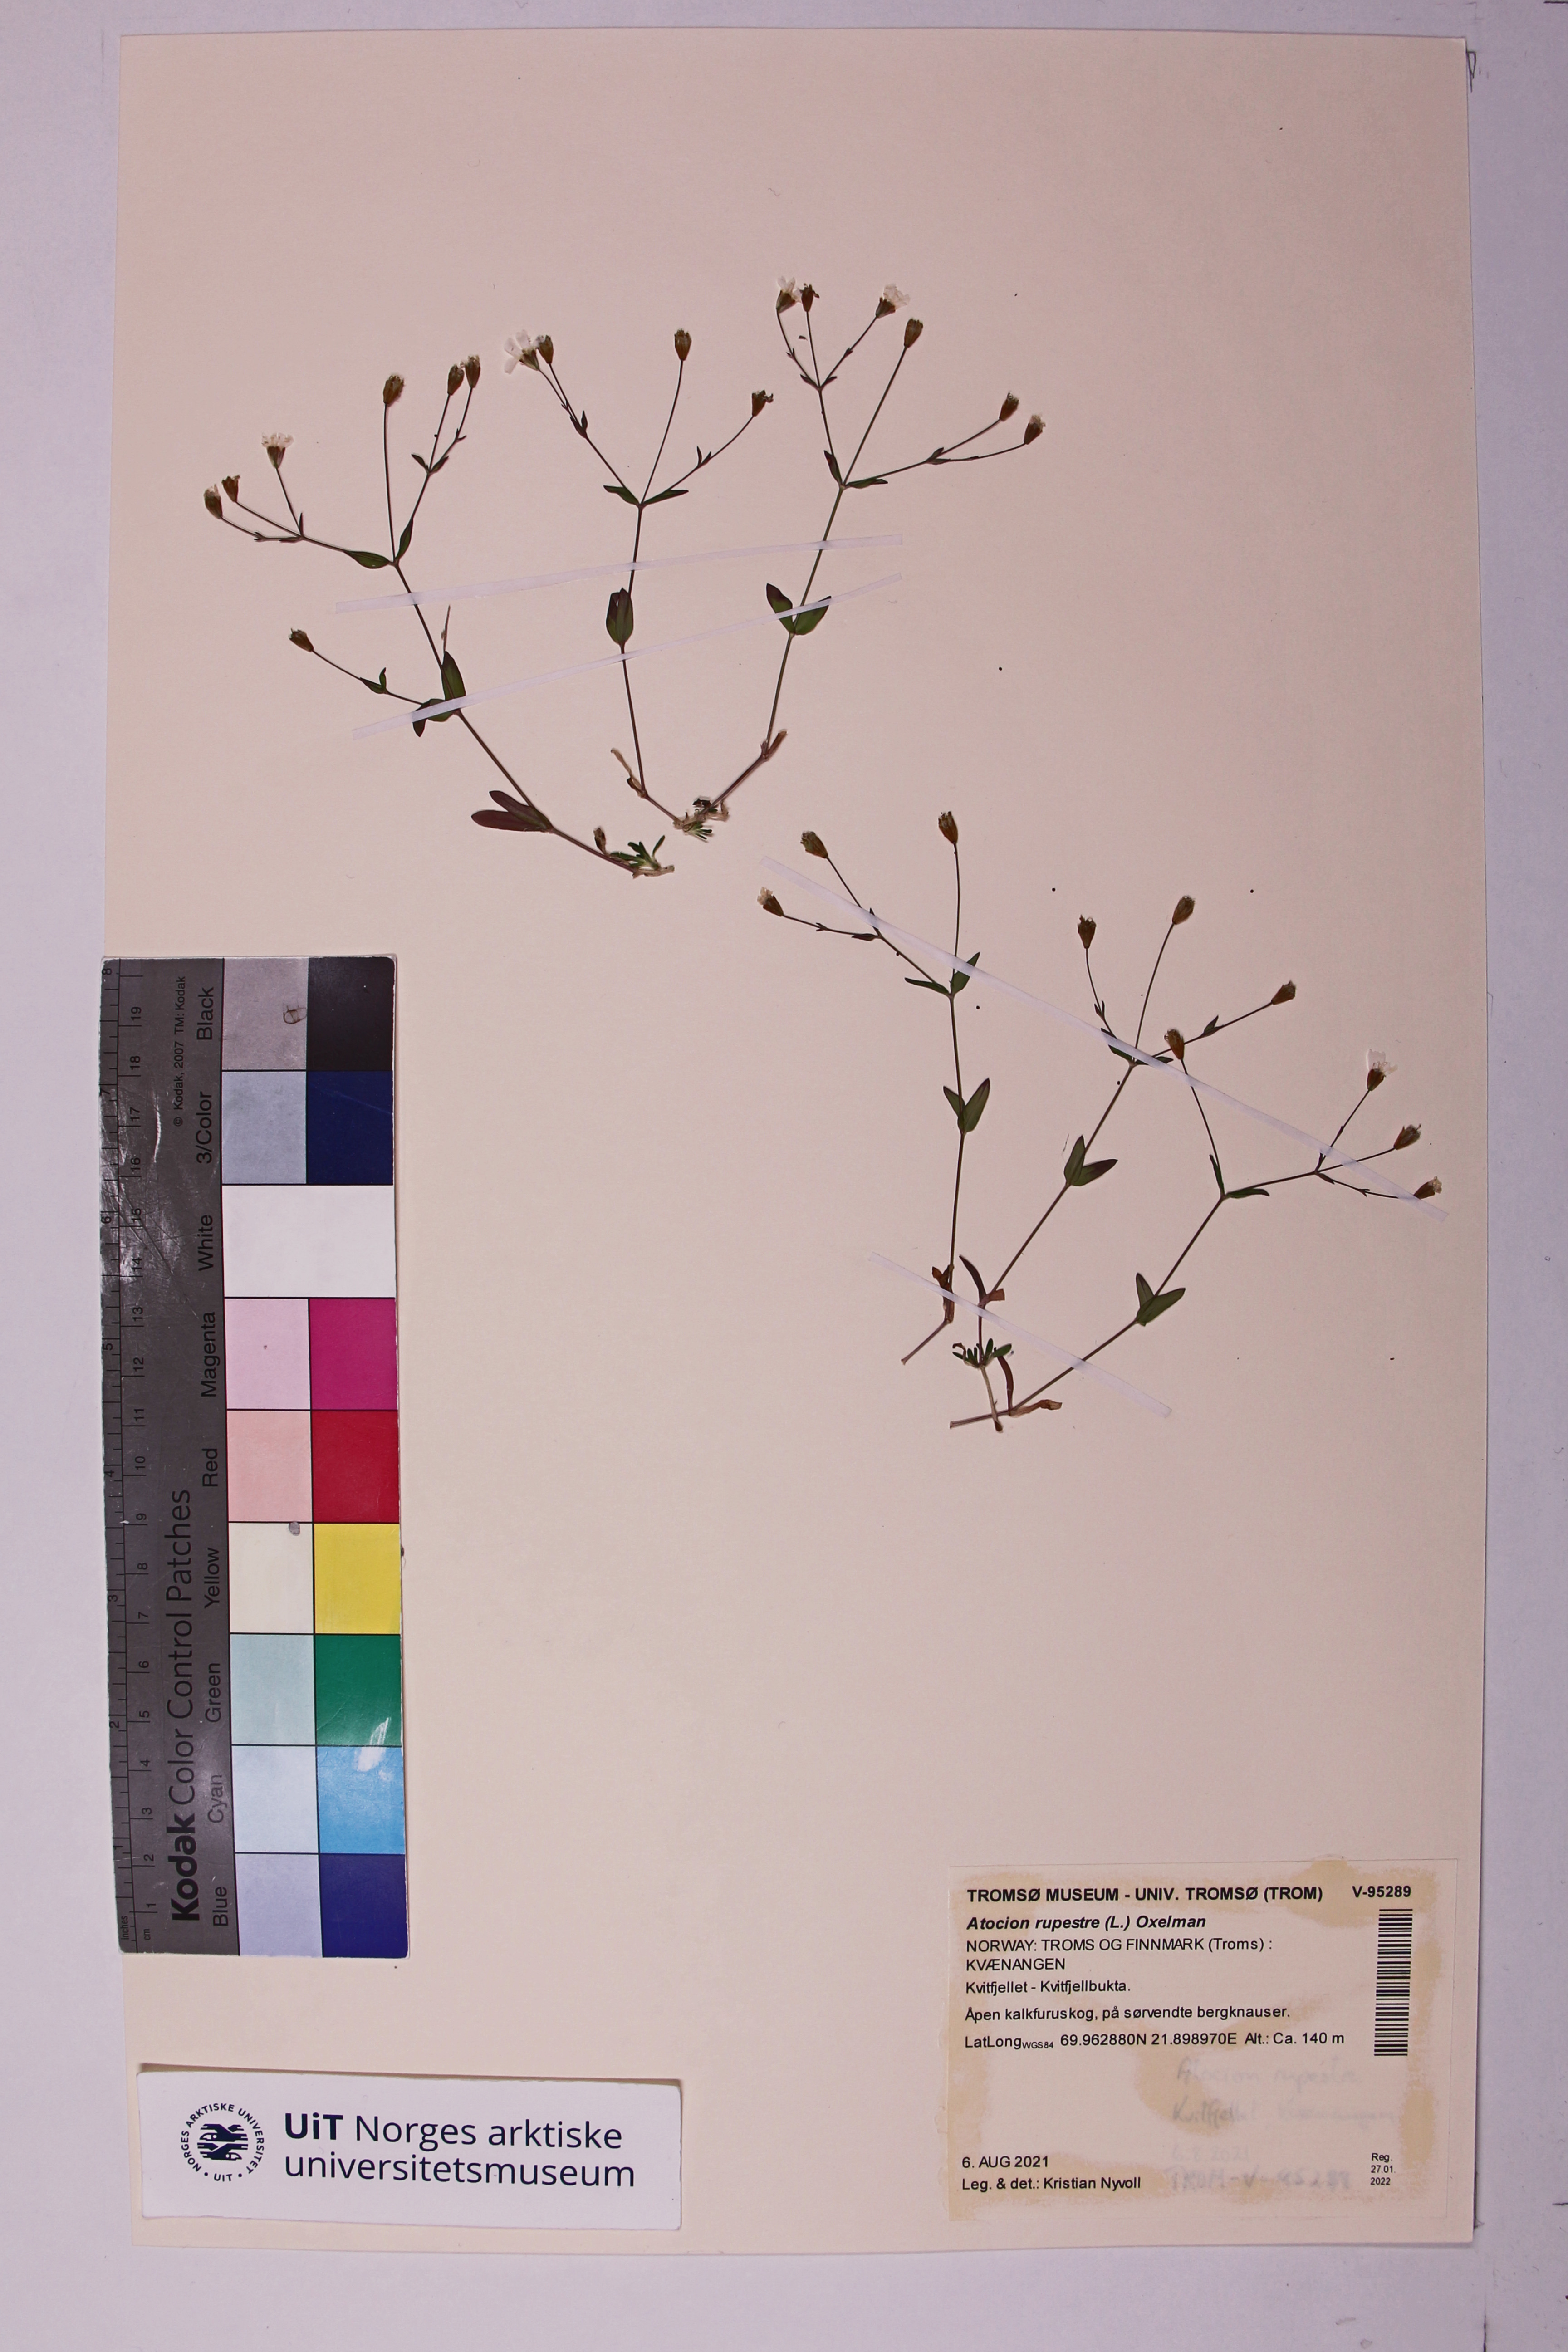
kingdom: Plantae
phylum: Tracheophyta
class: Magnoliopsida
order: Caryophyllales
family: Caryophyllaceae
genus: Atocion
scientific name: Atocion rupestre
